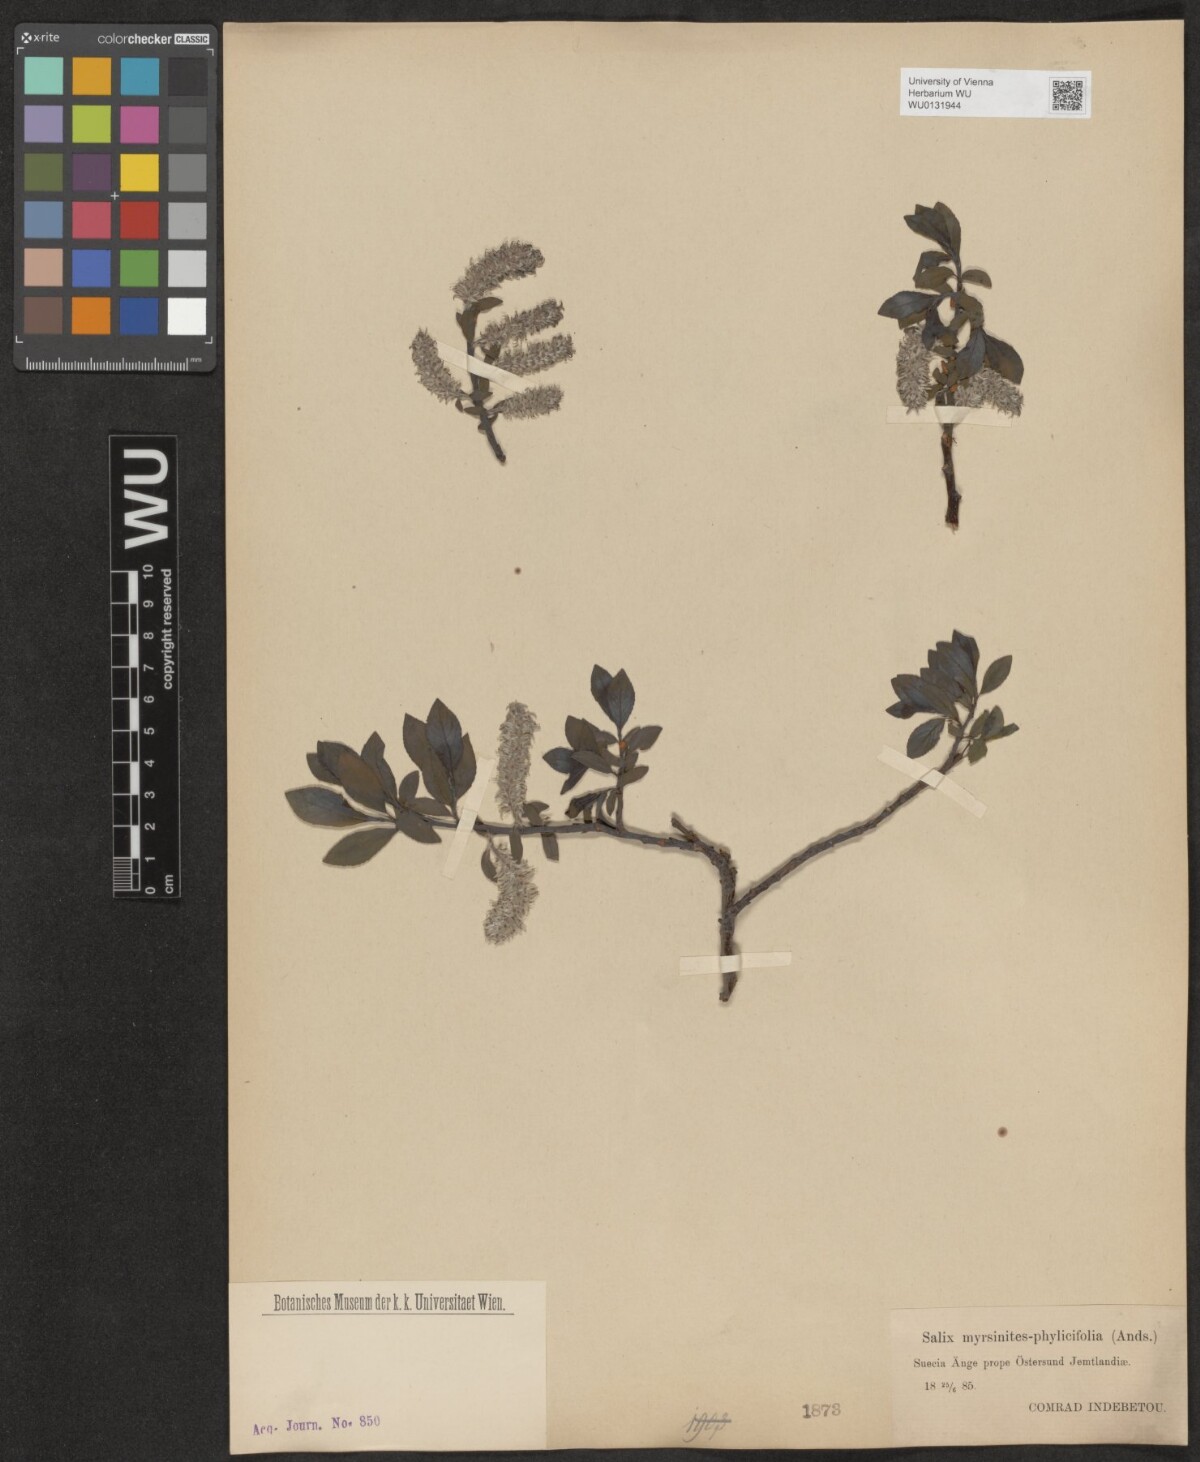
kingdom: Plantae
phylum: Tracheophyta
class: Magnoliopsida
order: Malpighiales
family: Salicaceae
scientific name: Salicaceae
